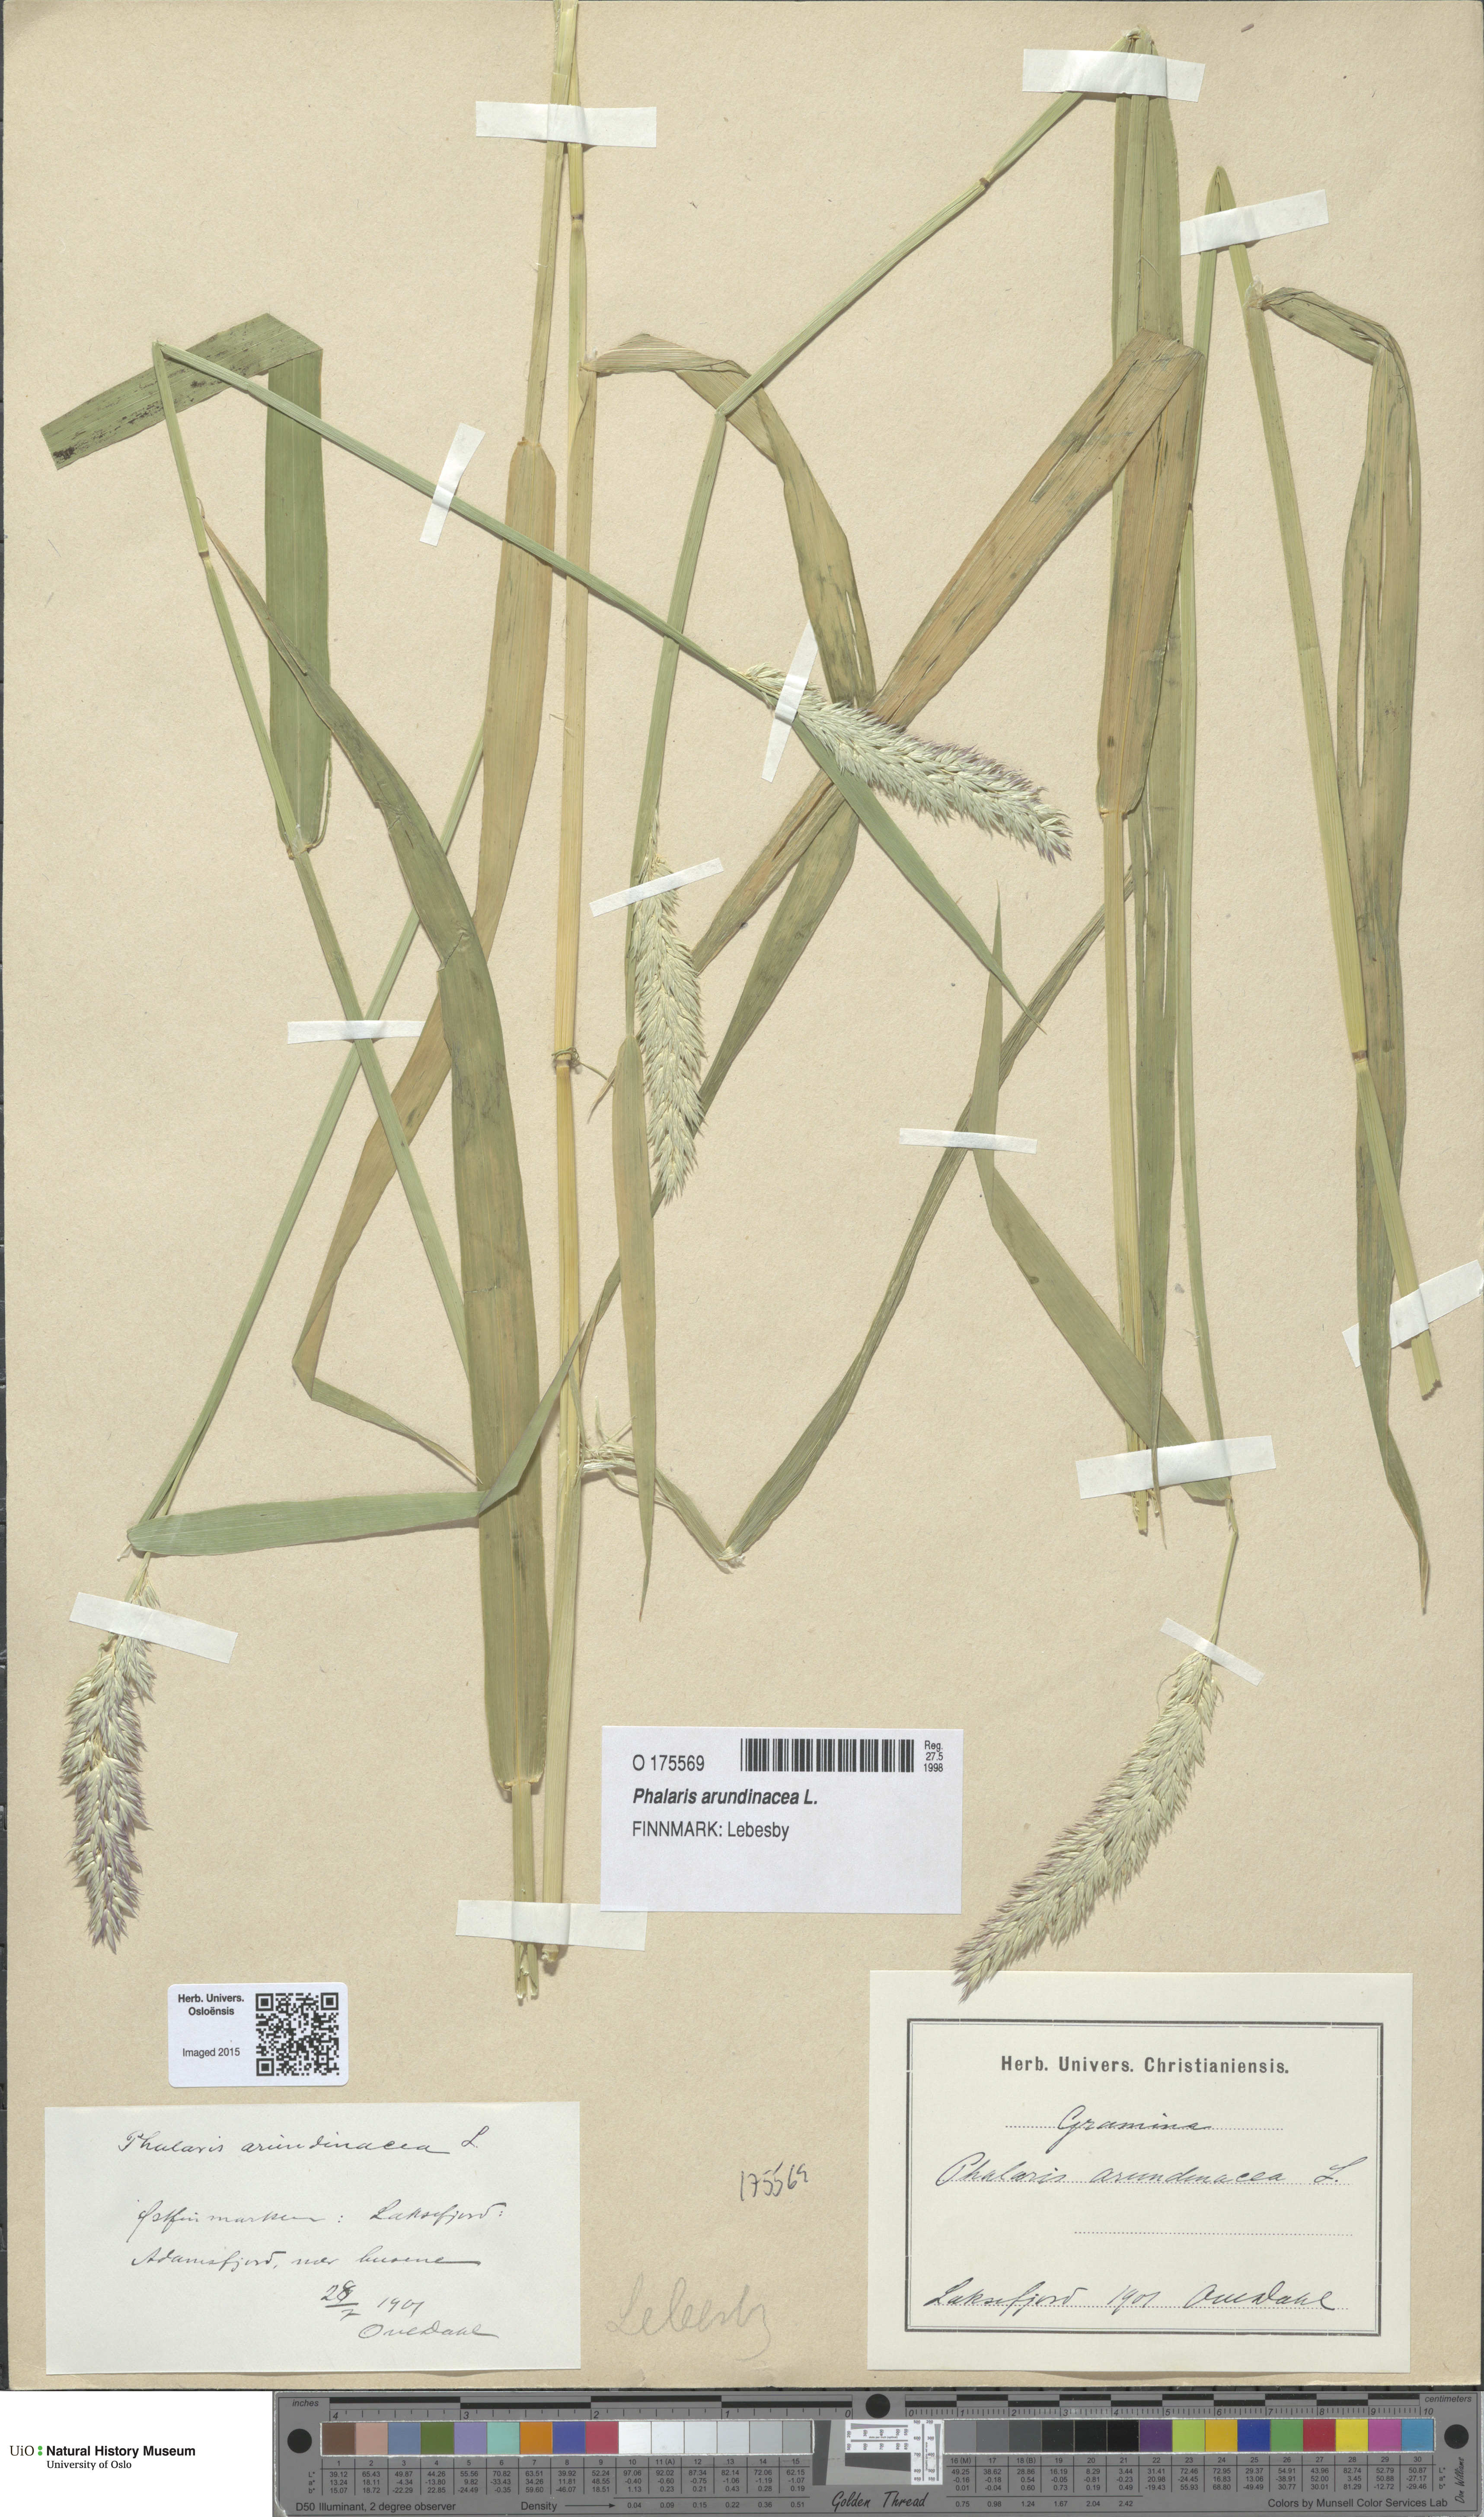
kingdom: Plantae
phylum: Tracheophyta
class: Liliopsida
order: Poales
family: Poaceae
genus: Phalaris
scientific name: Phalaris arundinacea
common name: Reed canary-grass
